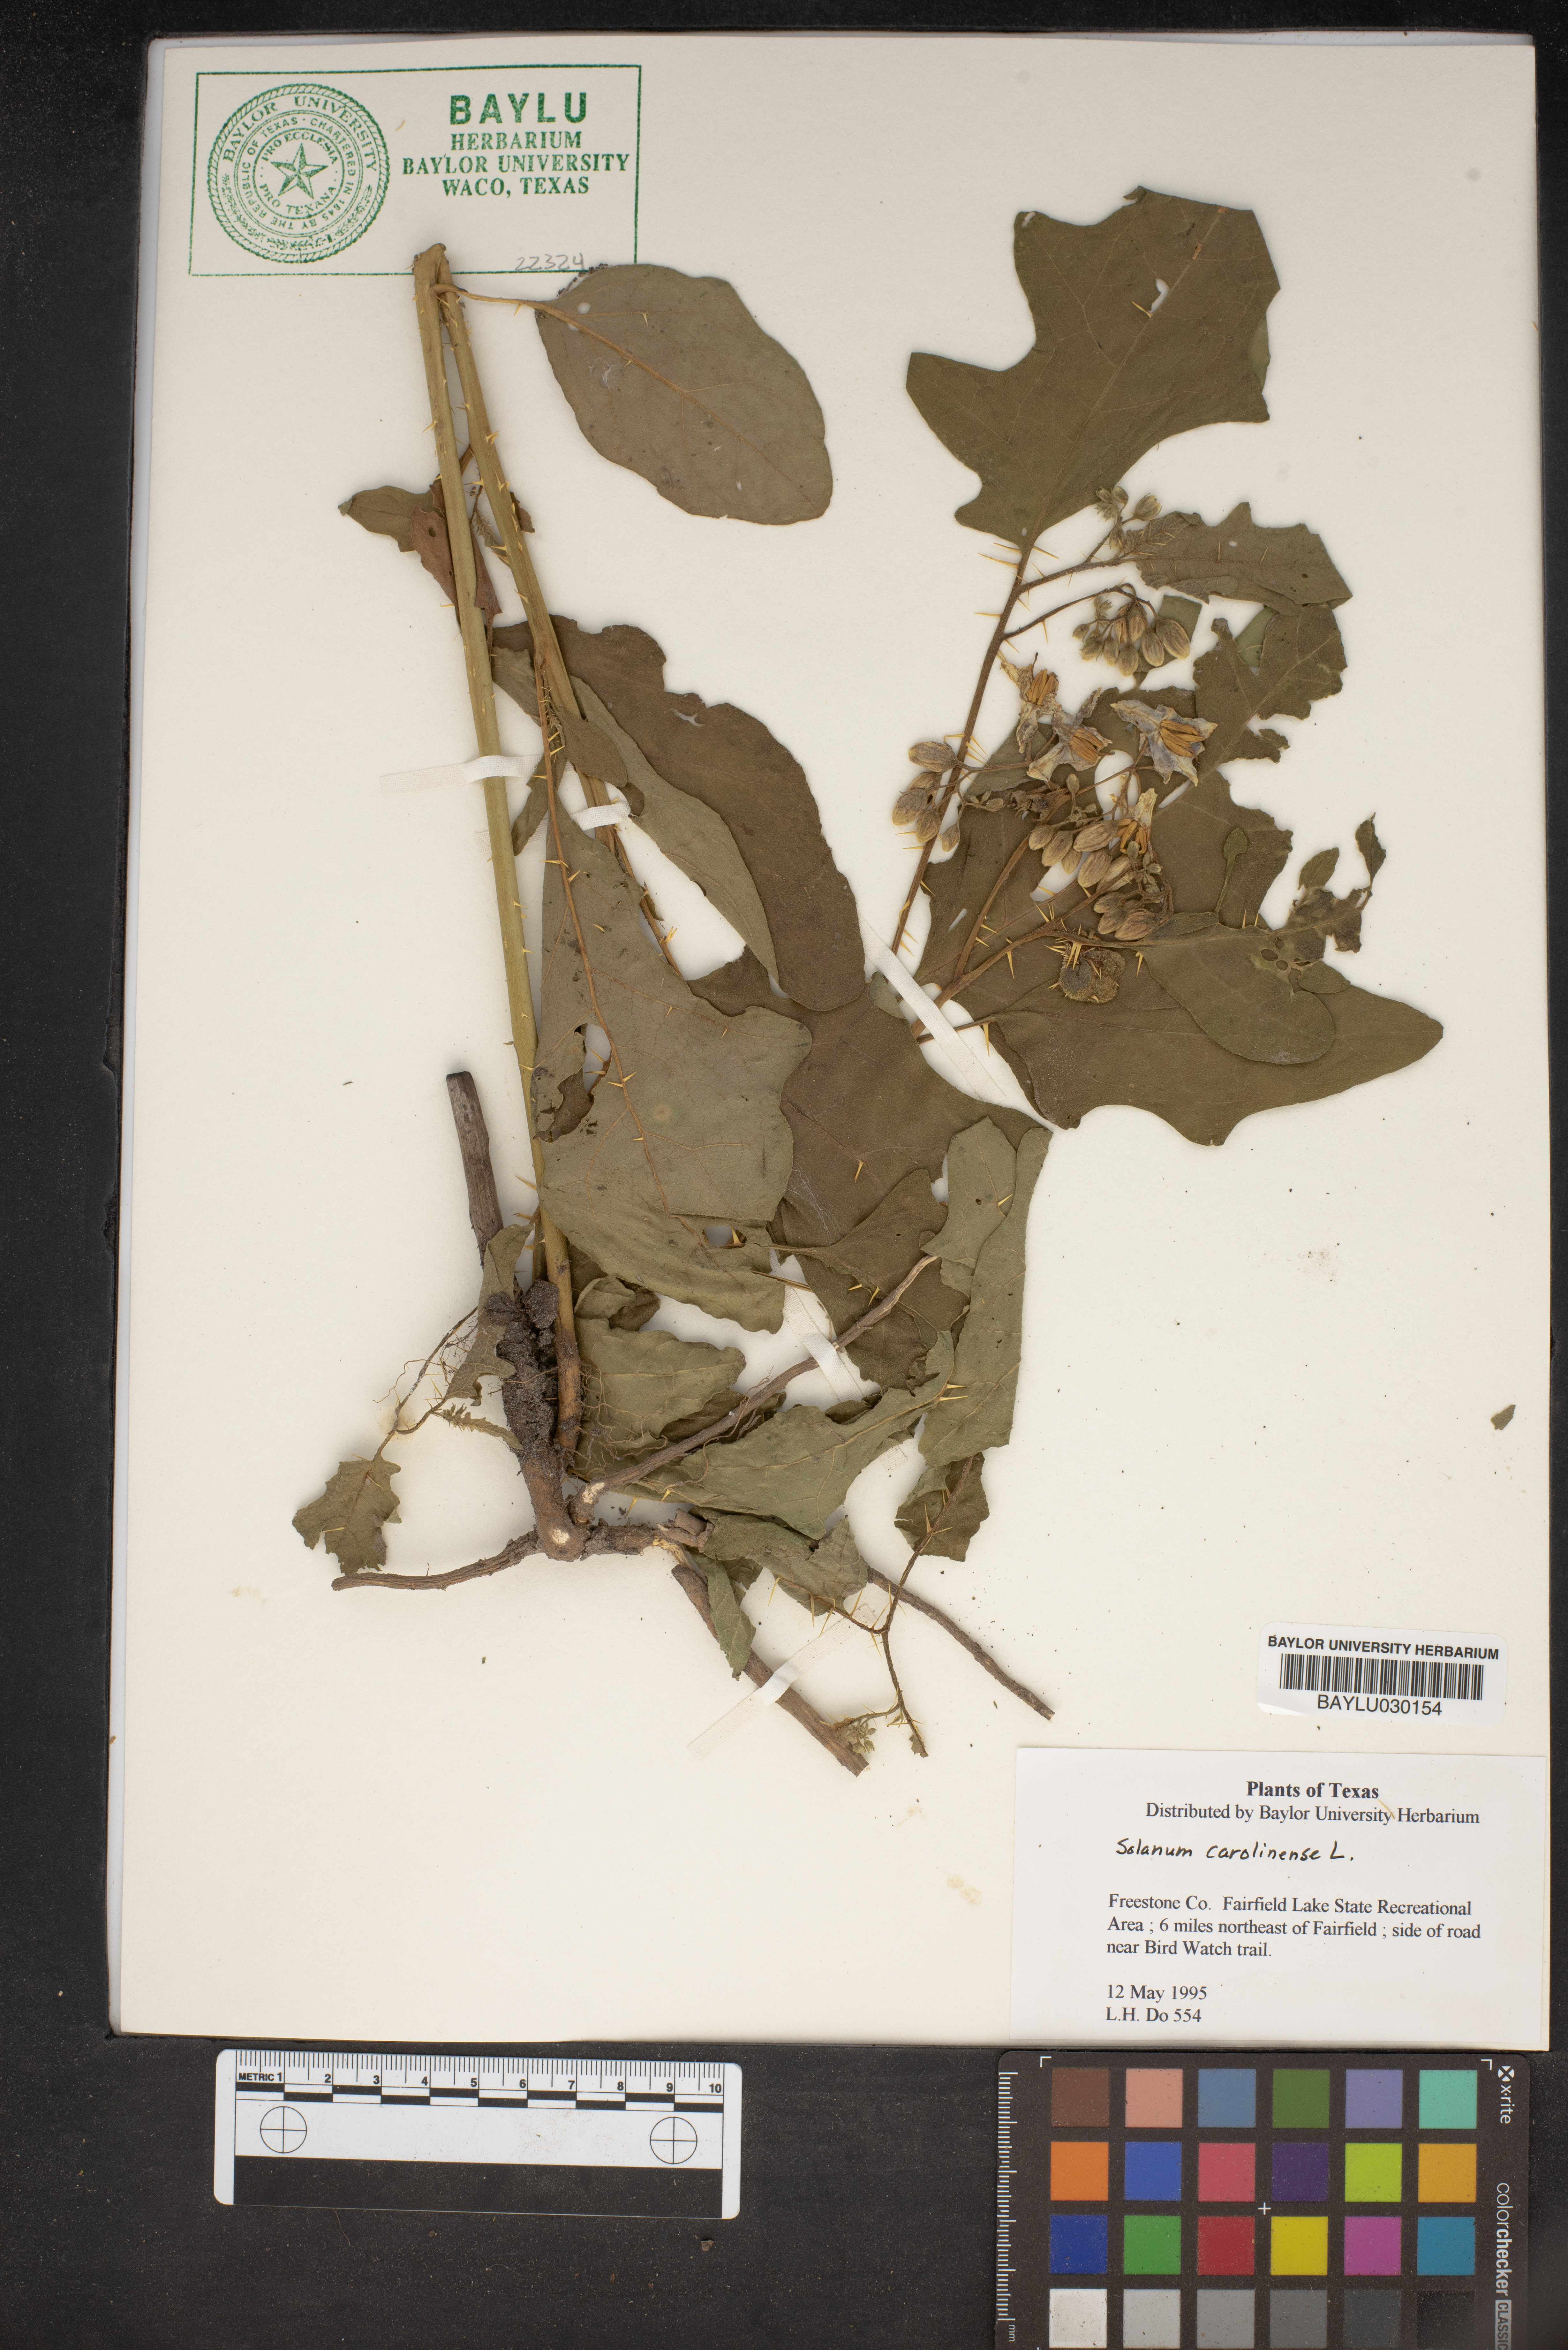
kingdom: Plantae
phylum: Tracheophyta
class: Magnoliopsida
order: Solanales
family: Solanaceae
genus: Solanum
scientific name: Solanum carolinense
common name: Horse-nettle
